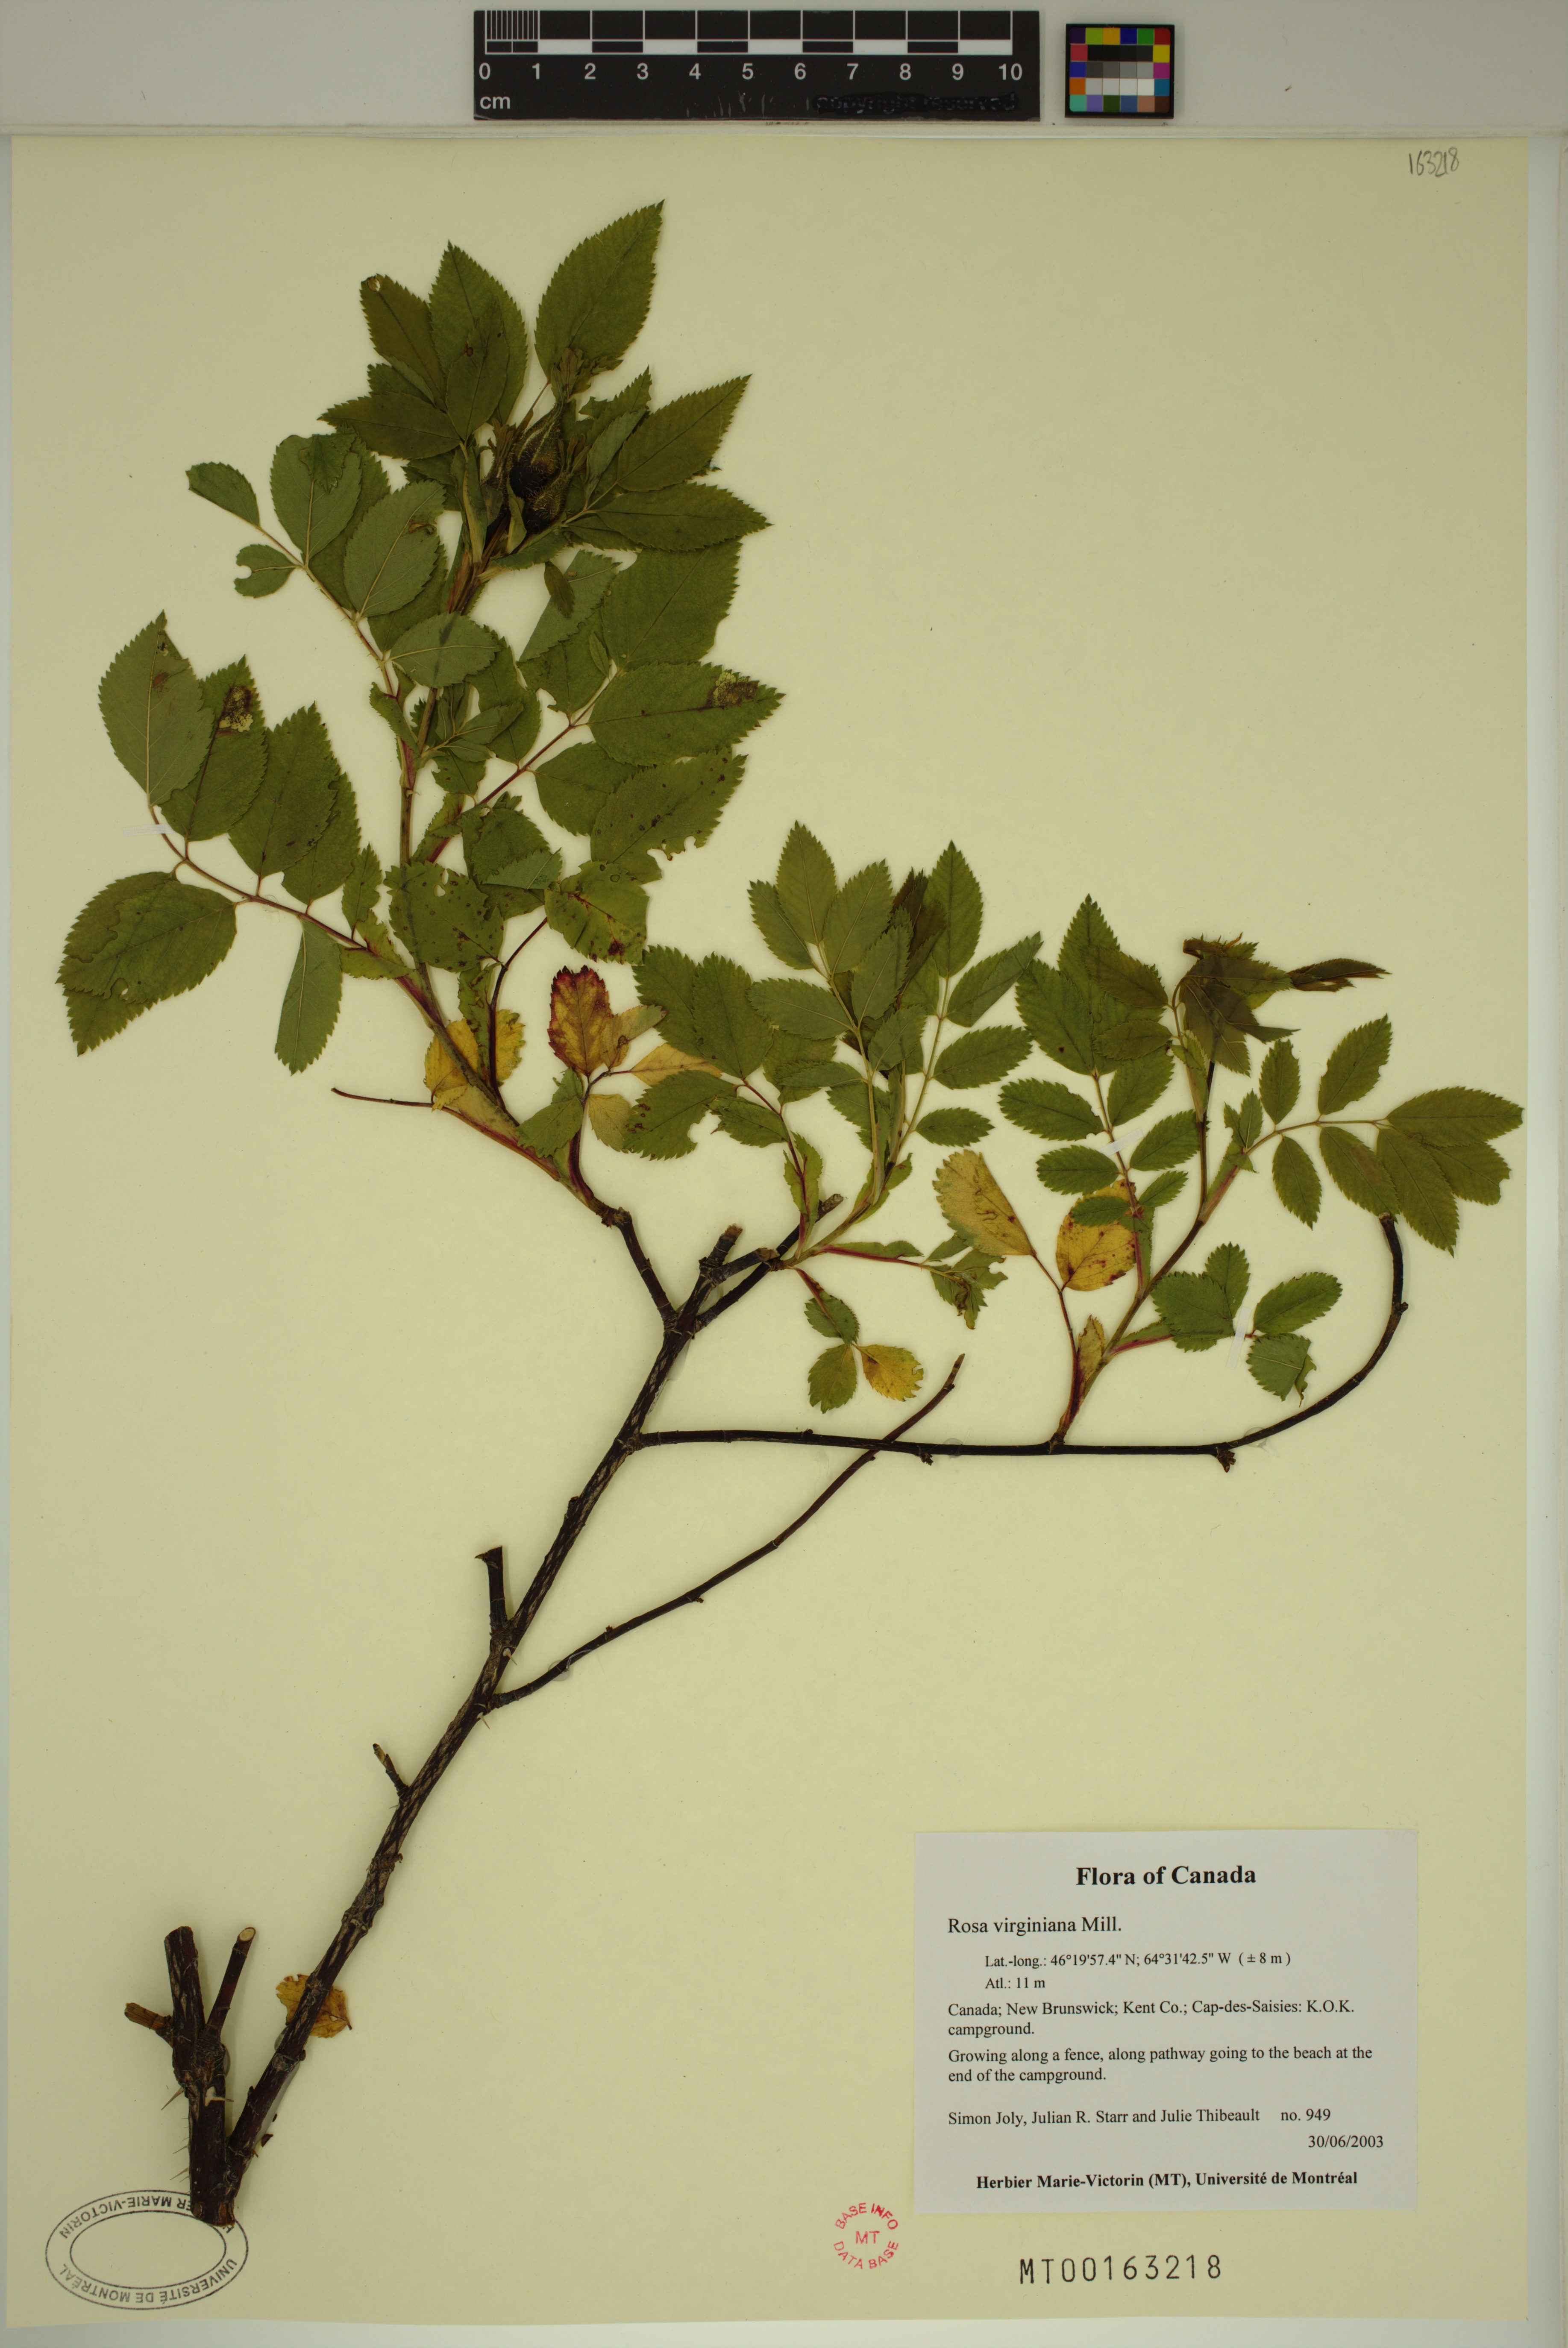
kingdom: Plantae
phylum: Tracheophyta
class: Magnoliopsida
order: Rosales
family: Rosaceae
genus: Rosa
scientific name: Rosa carolina
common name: Pasture rose
